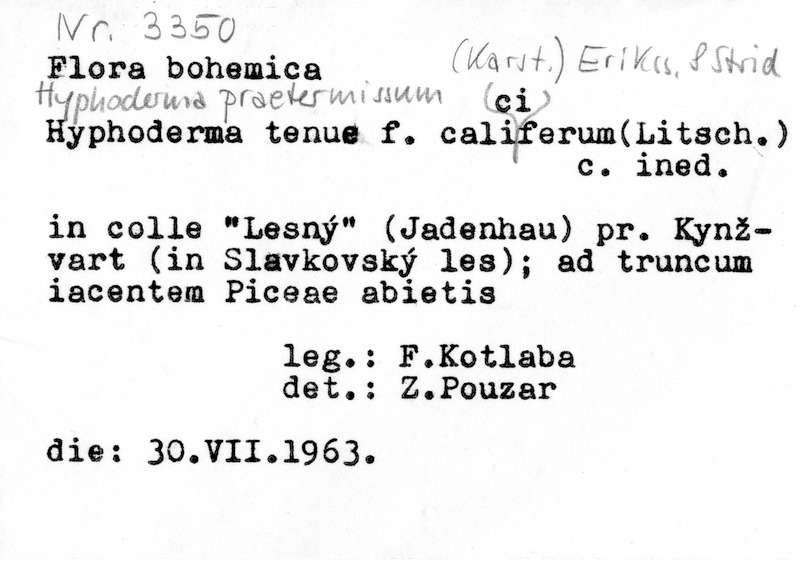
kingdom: Fungi
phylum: Basidiomycota
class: Agaricomycetes
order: Hymenochaetales
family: Rickenellaceae
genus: Peniophorella
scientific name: Peniophorella praetermissa
